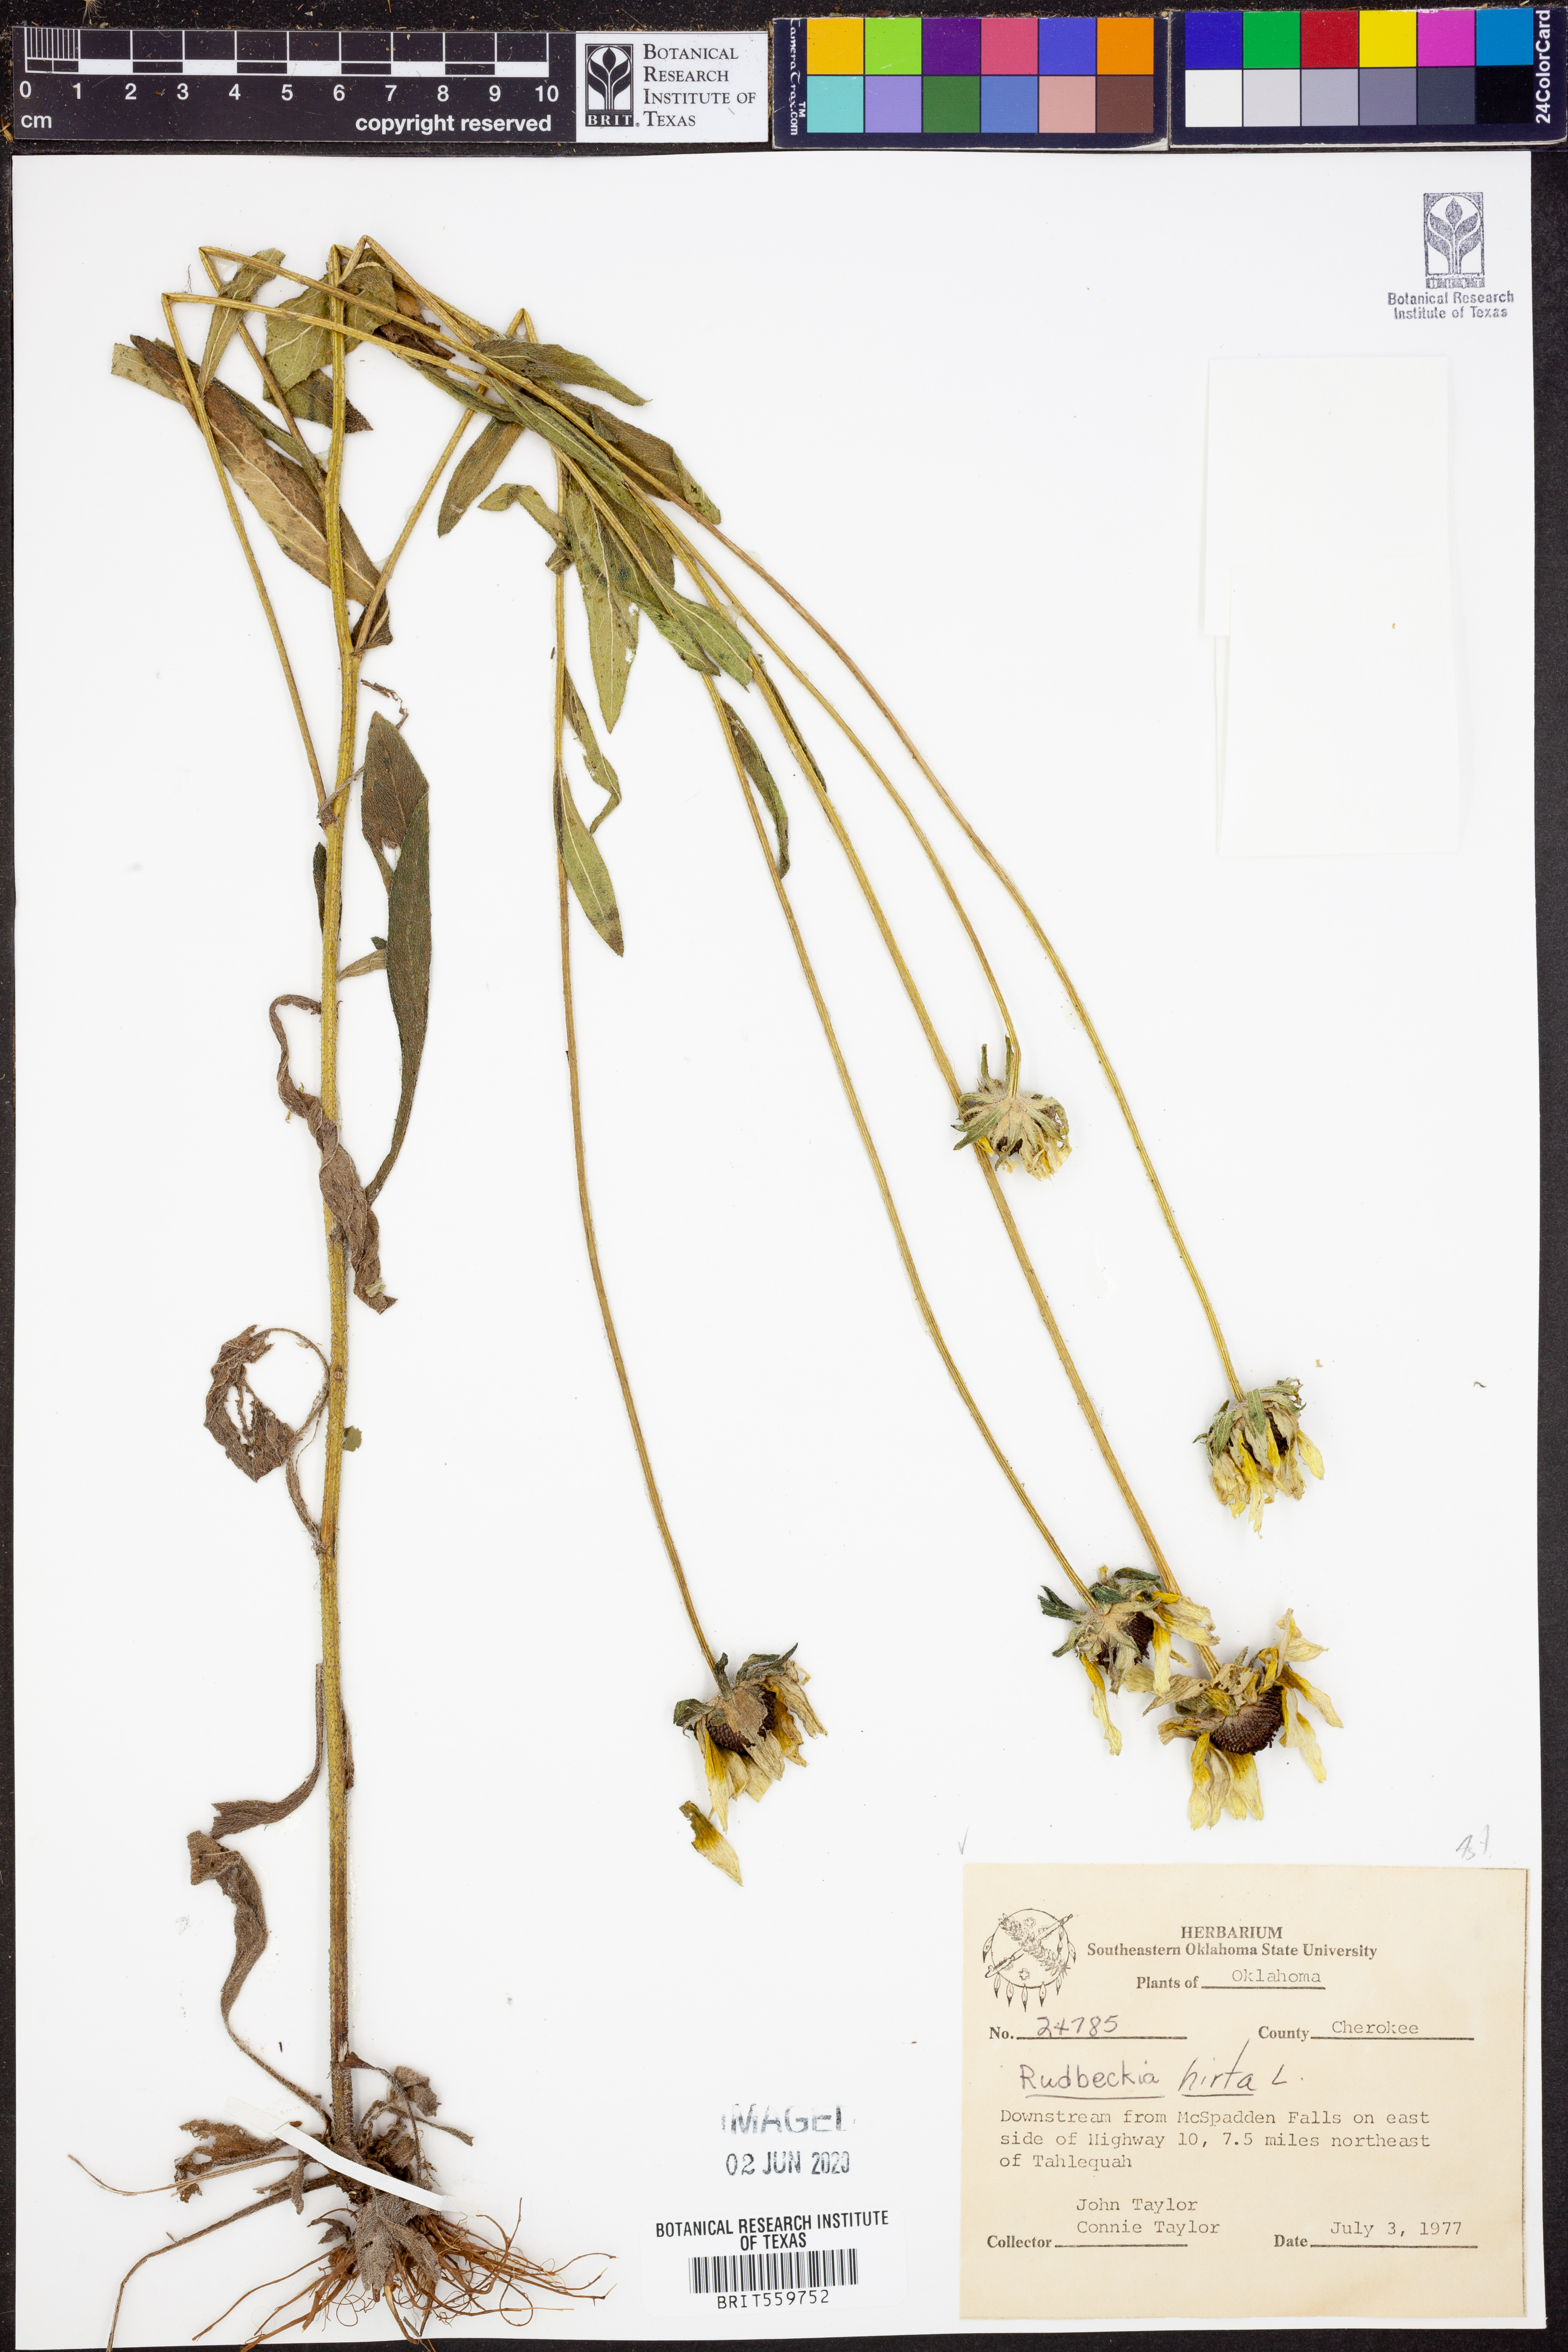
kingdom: Plantae
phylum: Tracheophyta
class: Magnoliopsida
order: Asterales
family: Asteraceae
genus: Rudbeckia
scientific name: Rudbeckia hirta
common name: Black-eyed-susan
